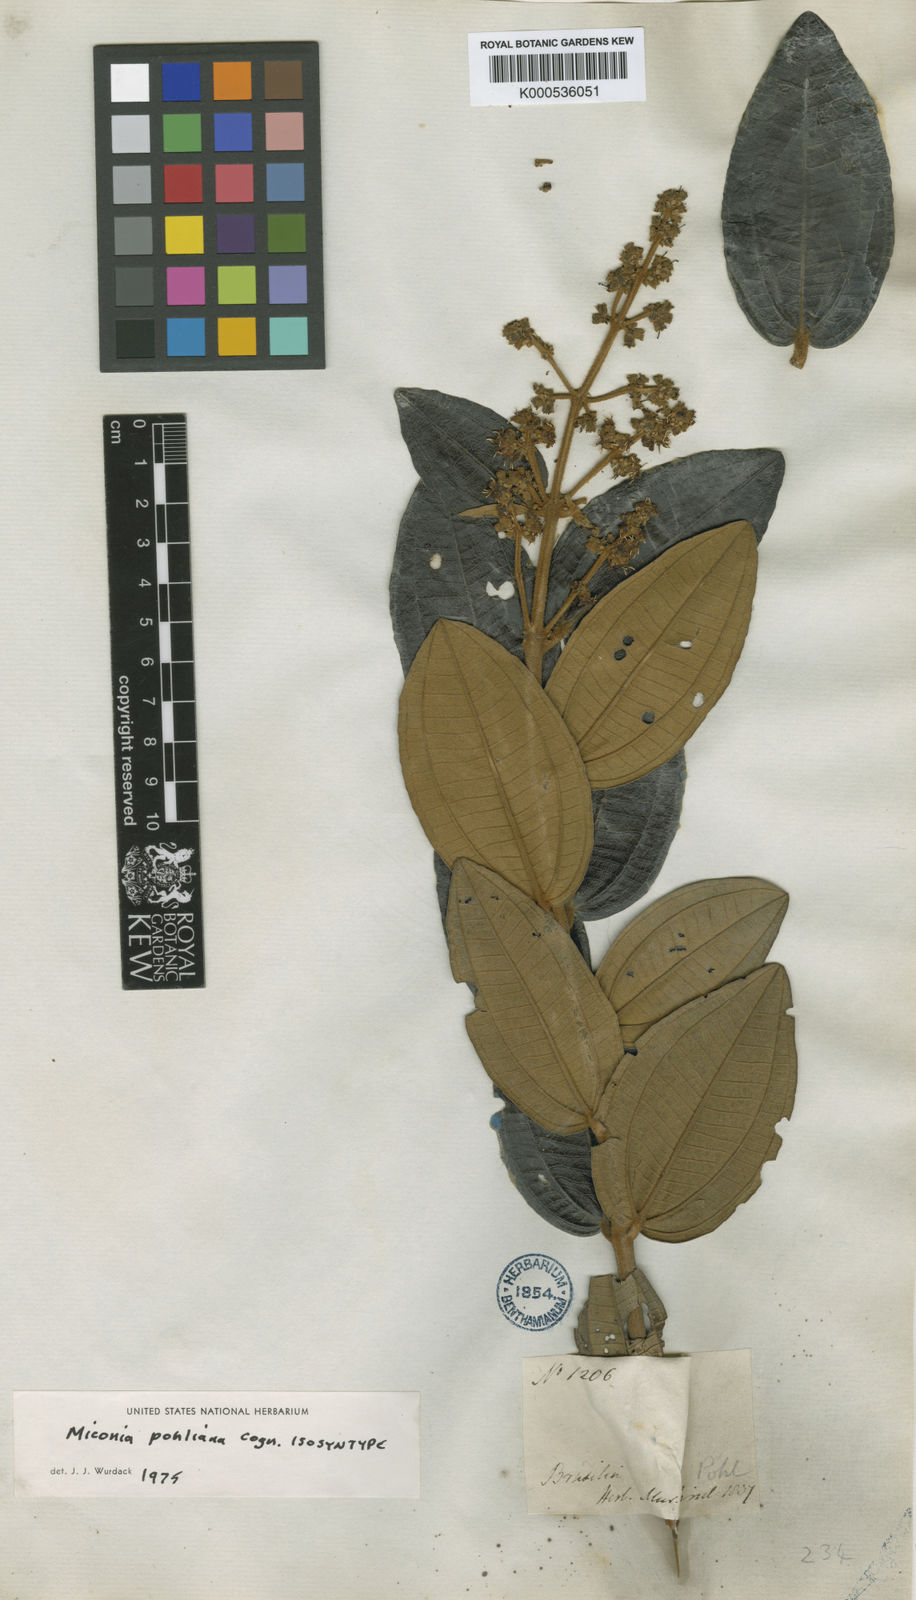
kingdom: Plantae
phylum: Tracheophyta
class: Magnoliopsida
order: Myrtales
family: Melastomataceae
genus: Miconia
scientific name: Miconia leucocarpa
